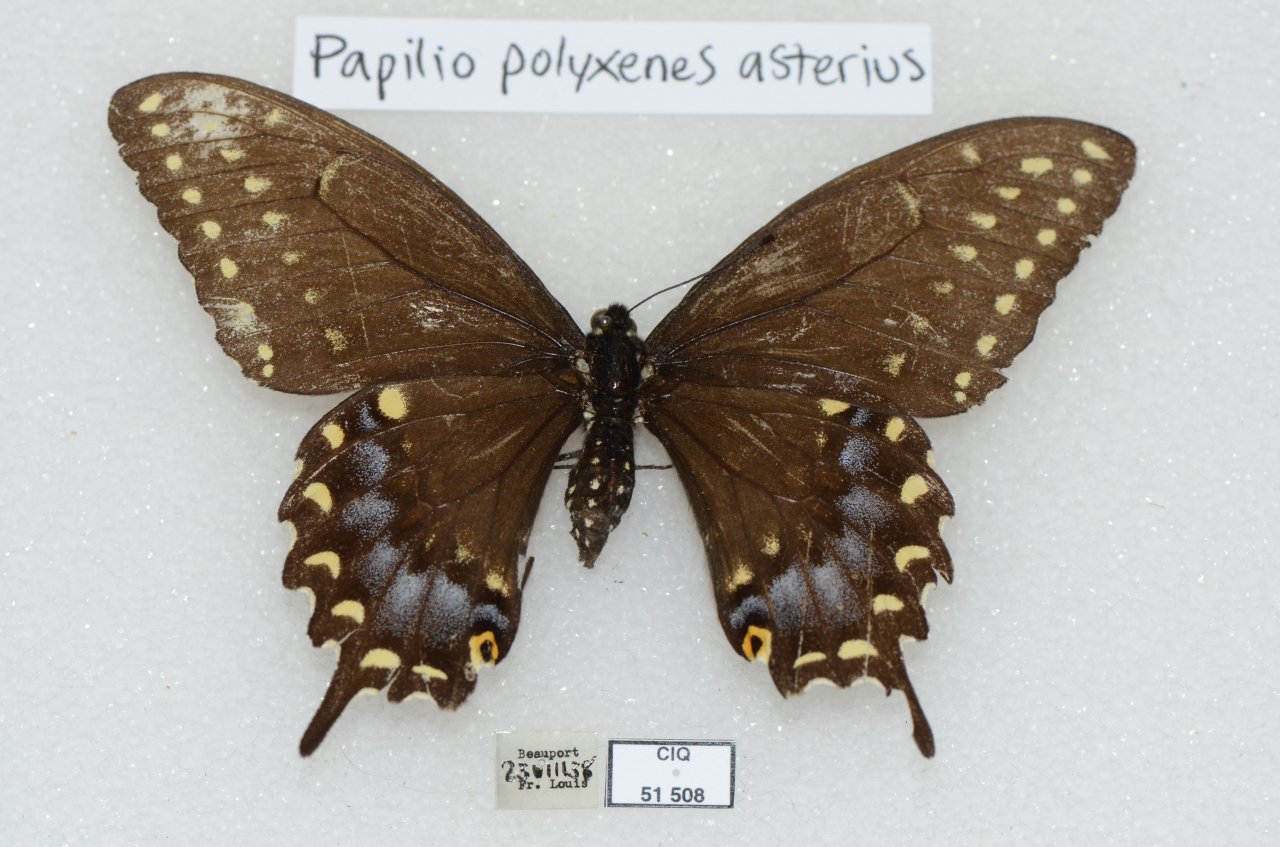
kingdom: Animalia
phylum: Arthropoda
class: Insecta
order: Lepidoptera
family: Papilionidae
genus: Papilio
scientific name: Papilio polyxenes
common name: Black Swallowtail
